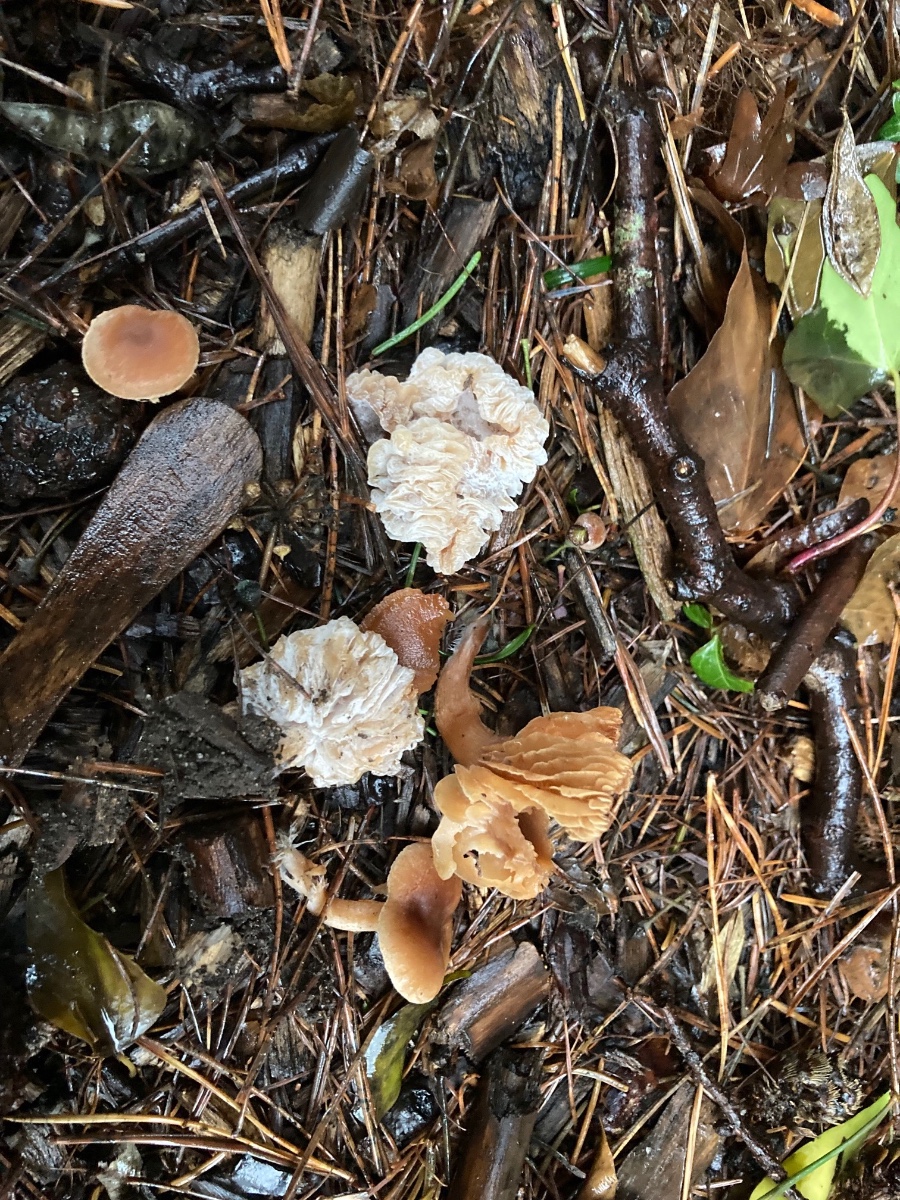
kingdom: Fungi
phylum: Ascomycota
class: Sordariomycetes
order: Hypocreales
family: Hypocreaceae
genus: Hypomyces
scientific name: Hypomyces tubariicola
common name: fnughat-snylteskorpe
